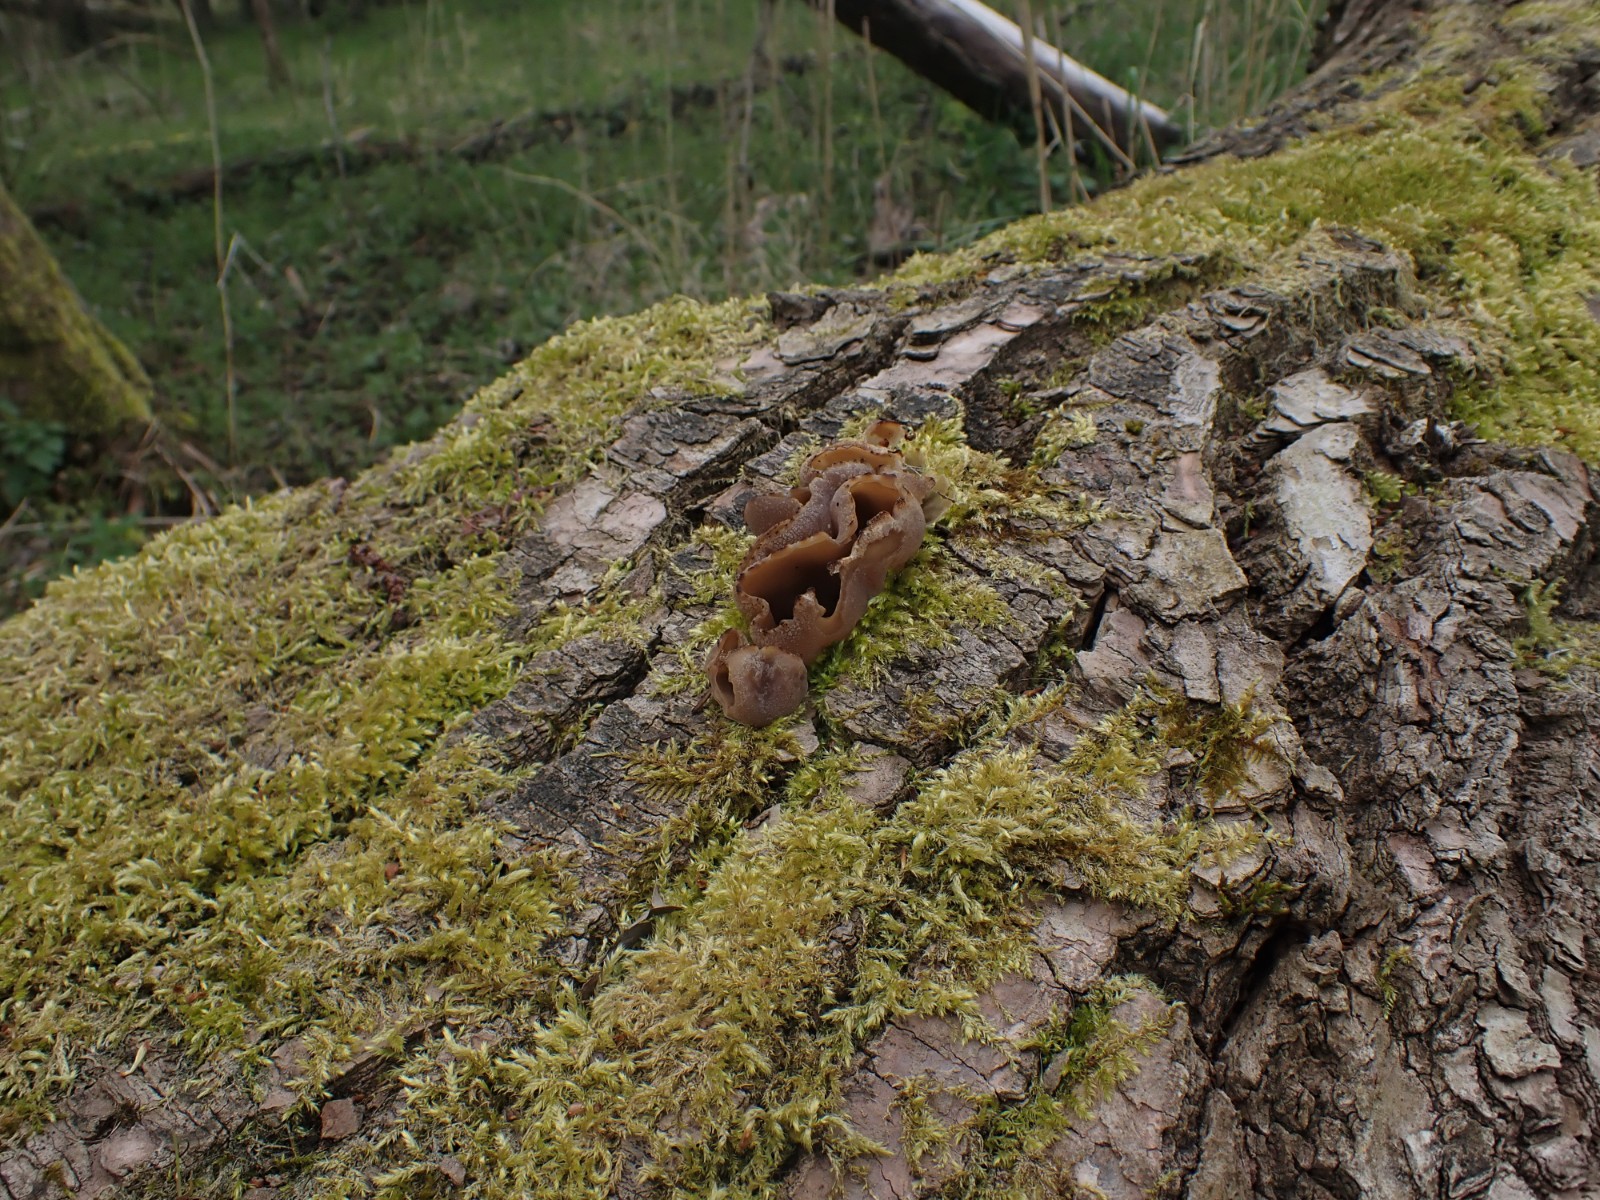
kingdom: Fungi
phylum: Ascomycota
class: Pezizomycetes
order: Pezizales
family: Pezizaceae
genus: Peziza
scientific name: Peziza varia
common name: Ved-bægersvamp
